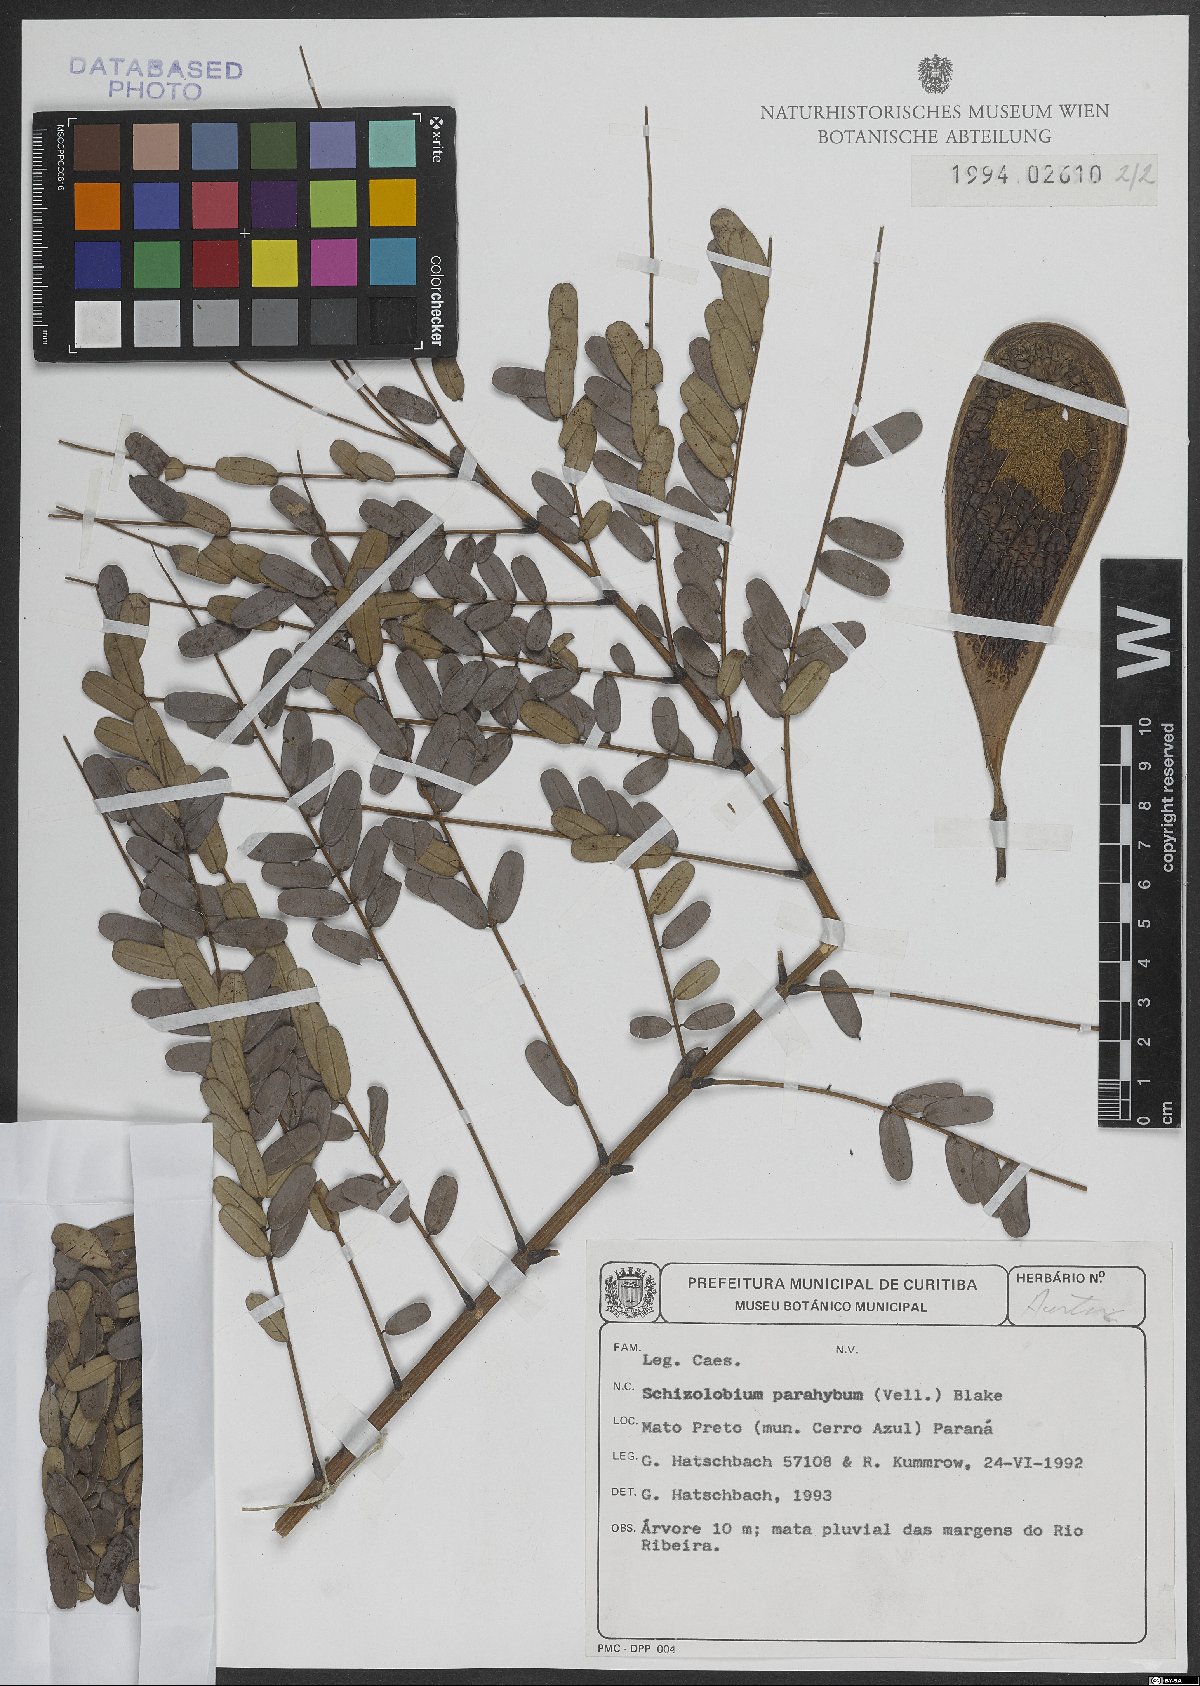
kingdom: Plantae
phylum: Tracheophyta
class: Magnoliopsida
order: Fabales
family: Fabaceae
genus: Schizolobium
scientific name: Schizolobium parahyba
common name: Brazilian firetree
